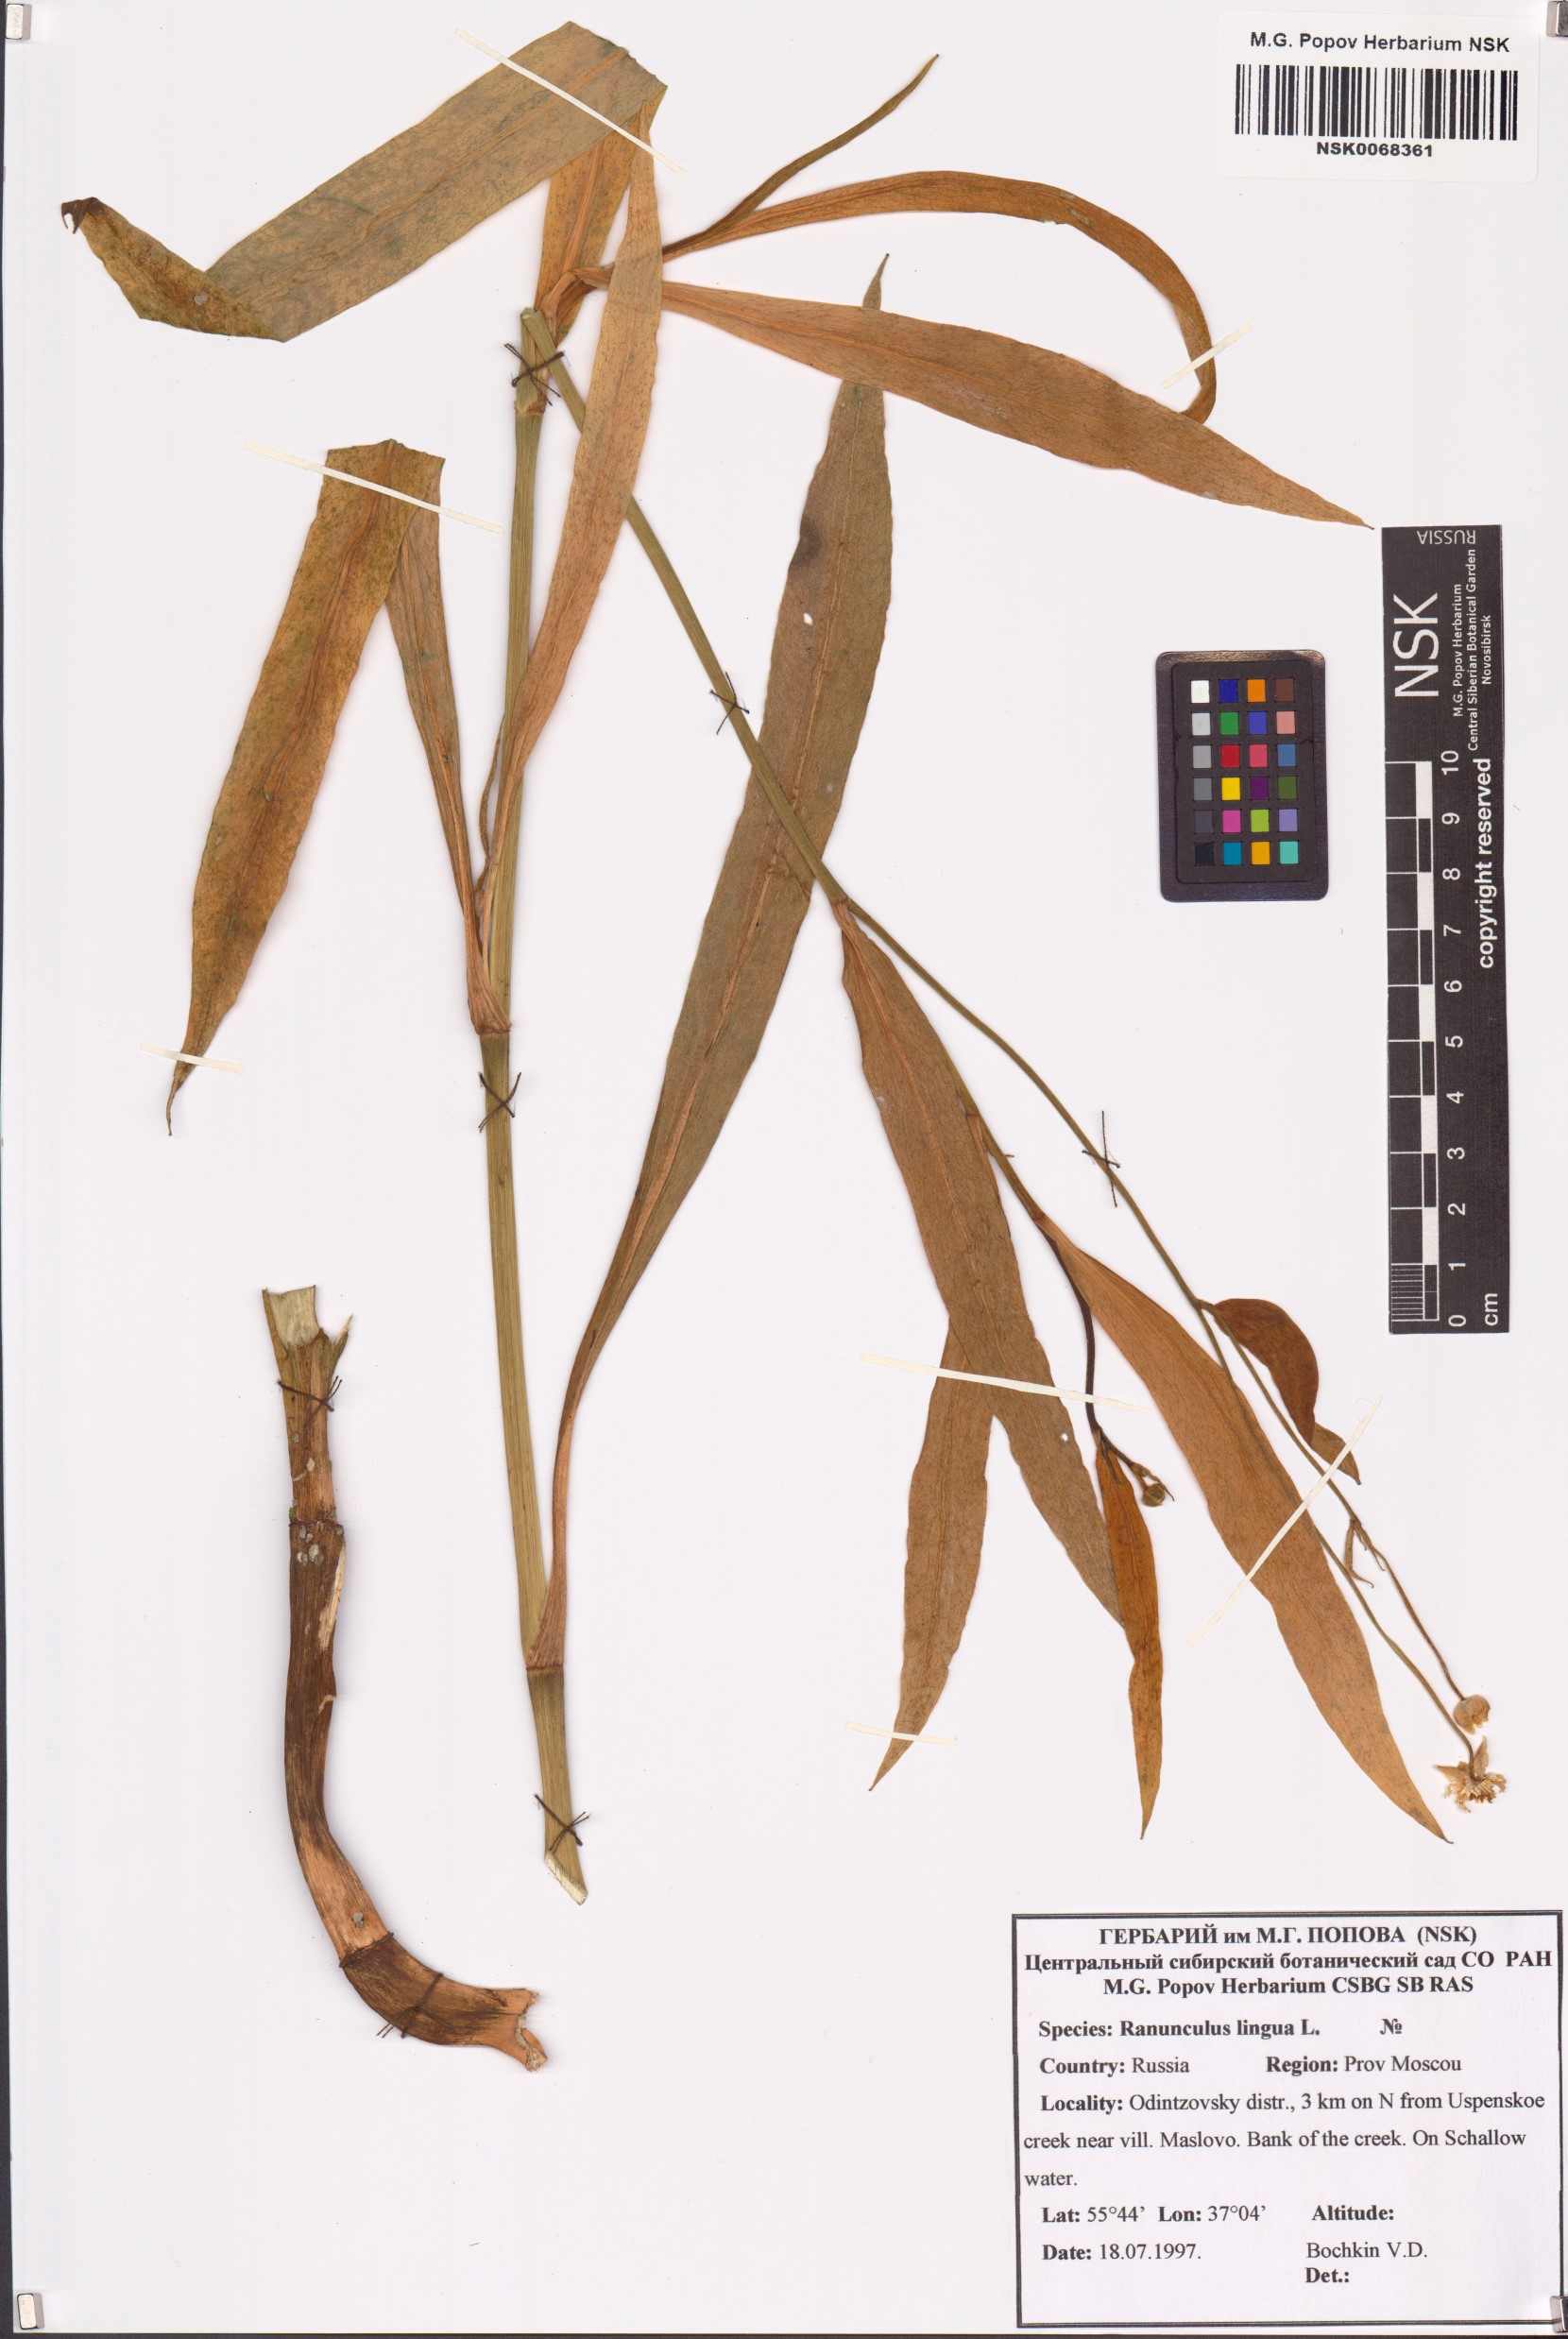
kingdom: Plantae
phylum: Tracheophyta
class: Magnoliopsida
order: Ranunculales
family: Ranunculaceae
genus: Ranunculus
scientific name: Ranunculus lingua
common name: Greater spearwort
